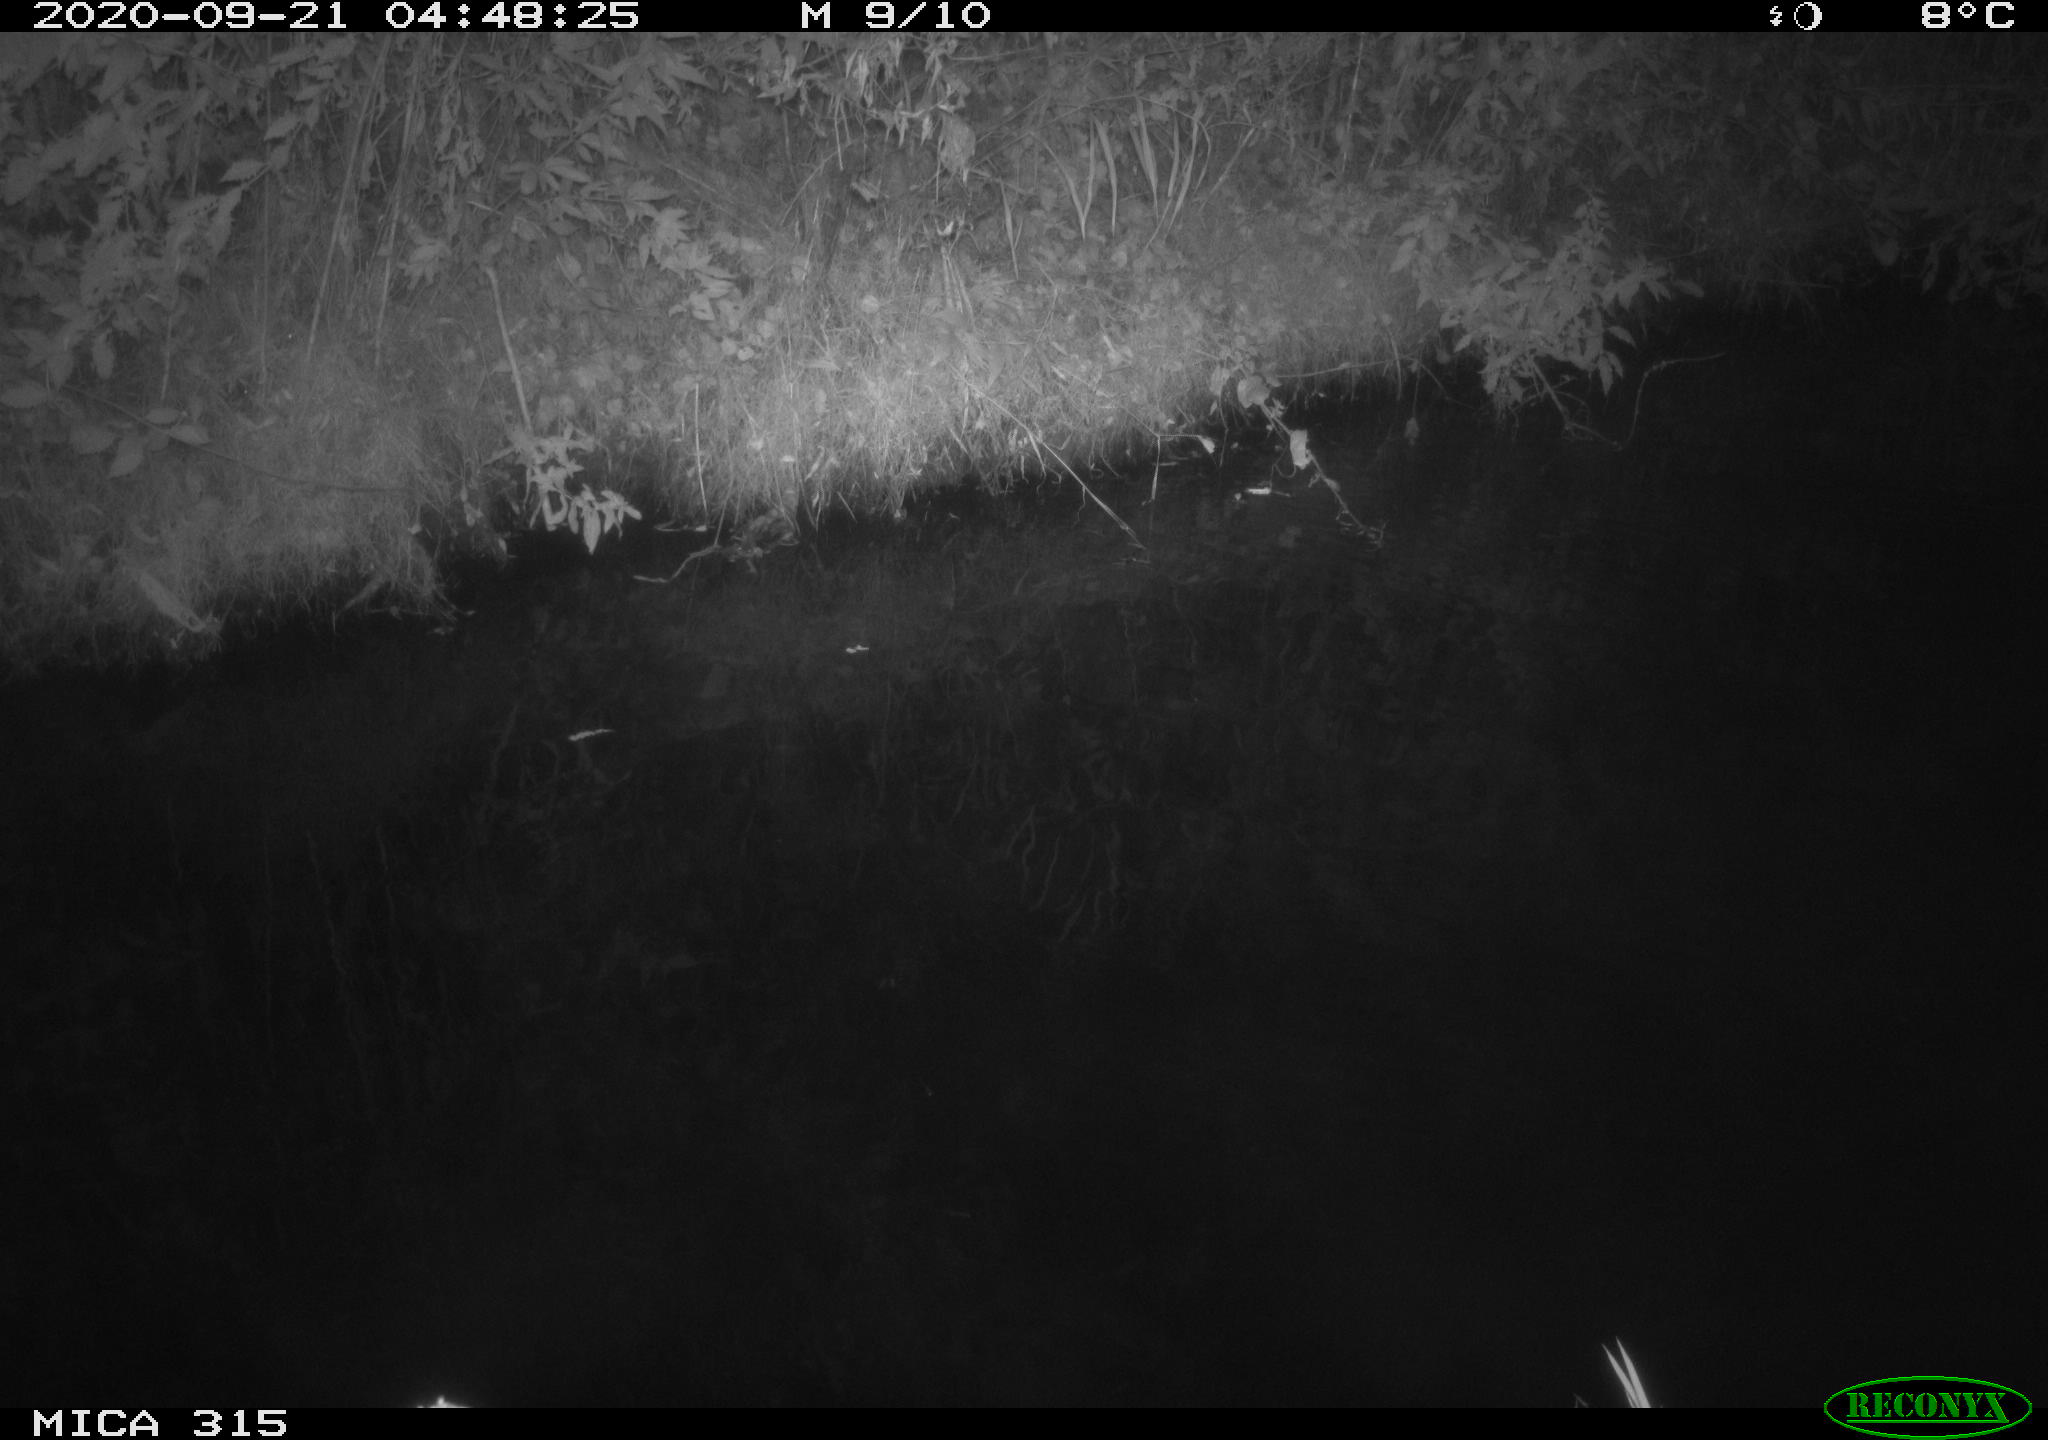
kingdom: Animalia
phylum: Chordata
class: Aves
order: Anseriformes
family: Anatidae
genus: Anas
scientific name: Anas platyrhynchos
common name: Mallard
